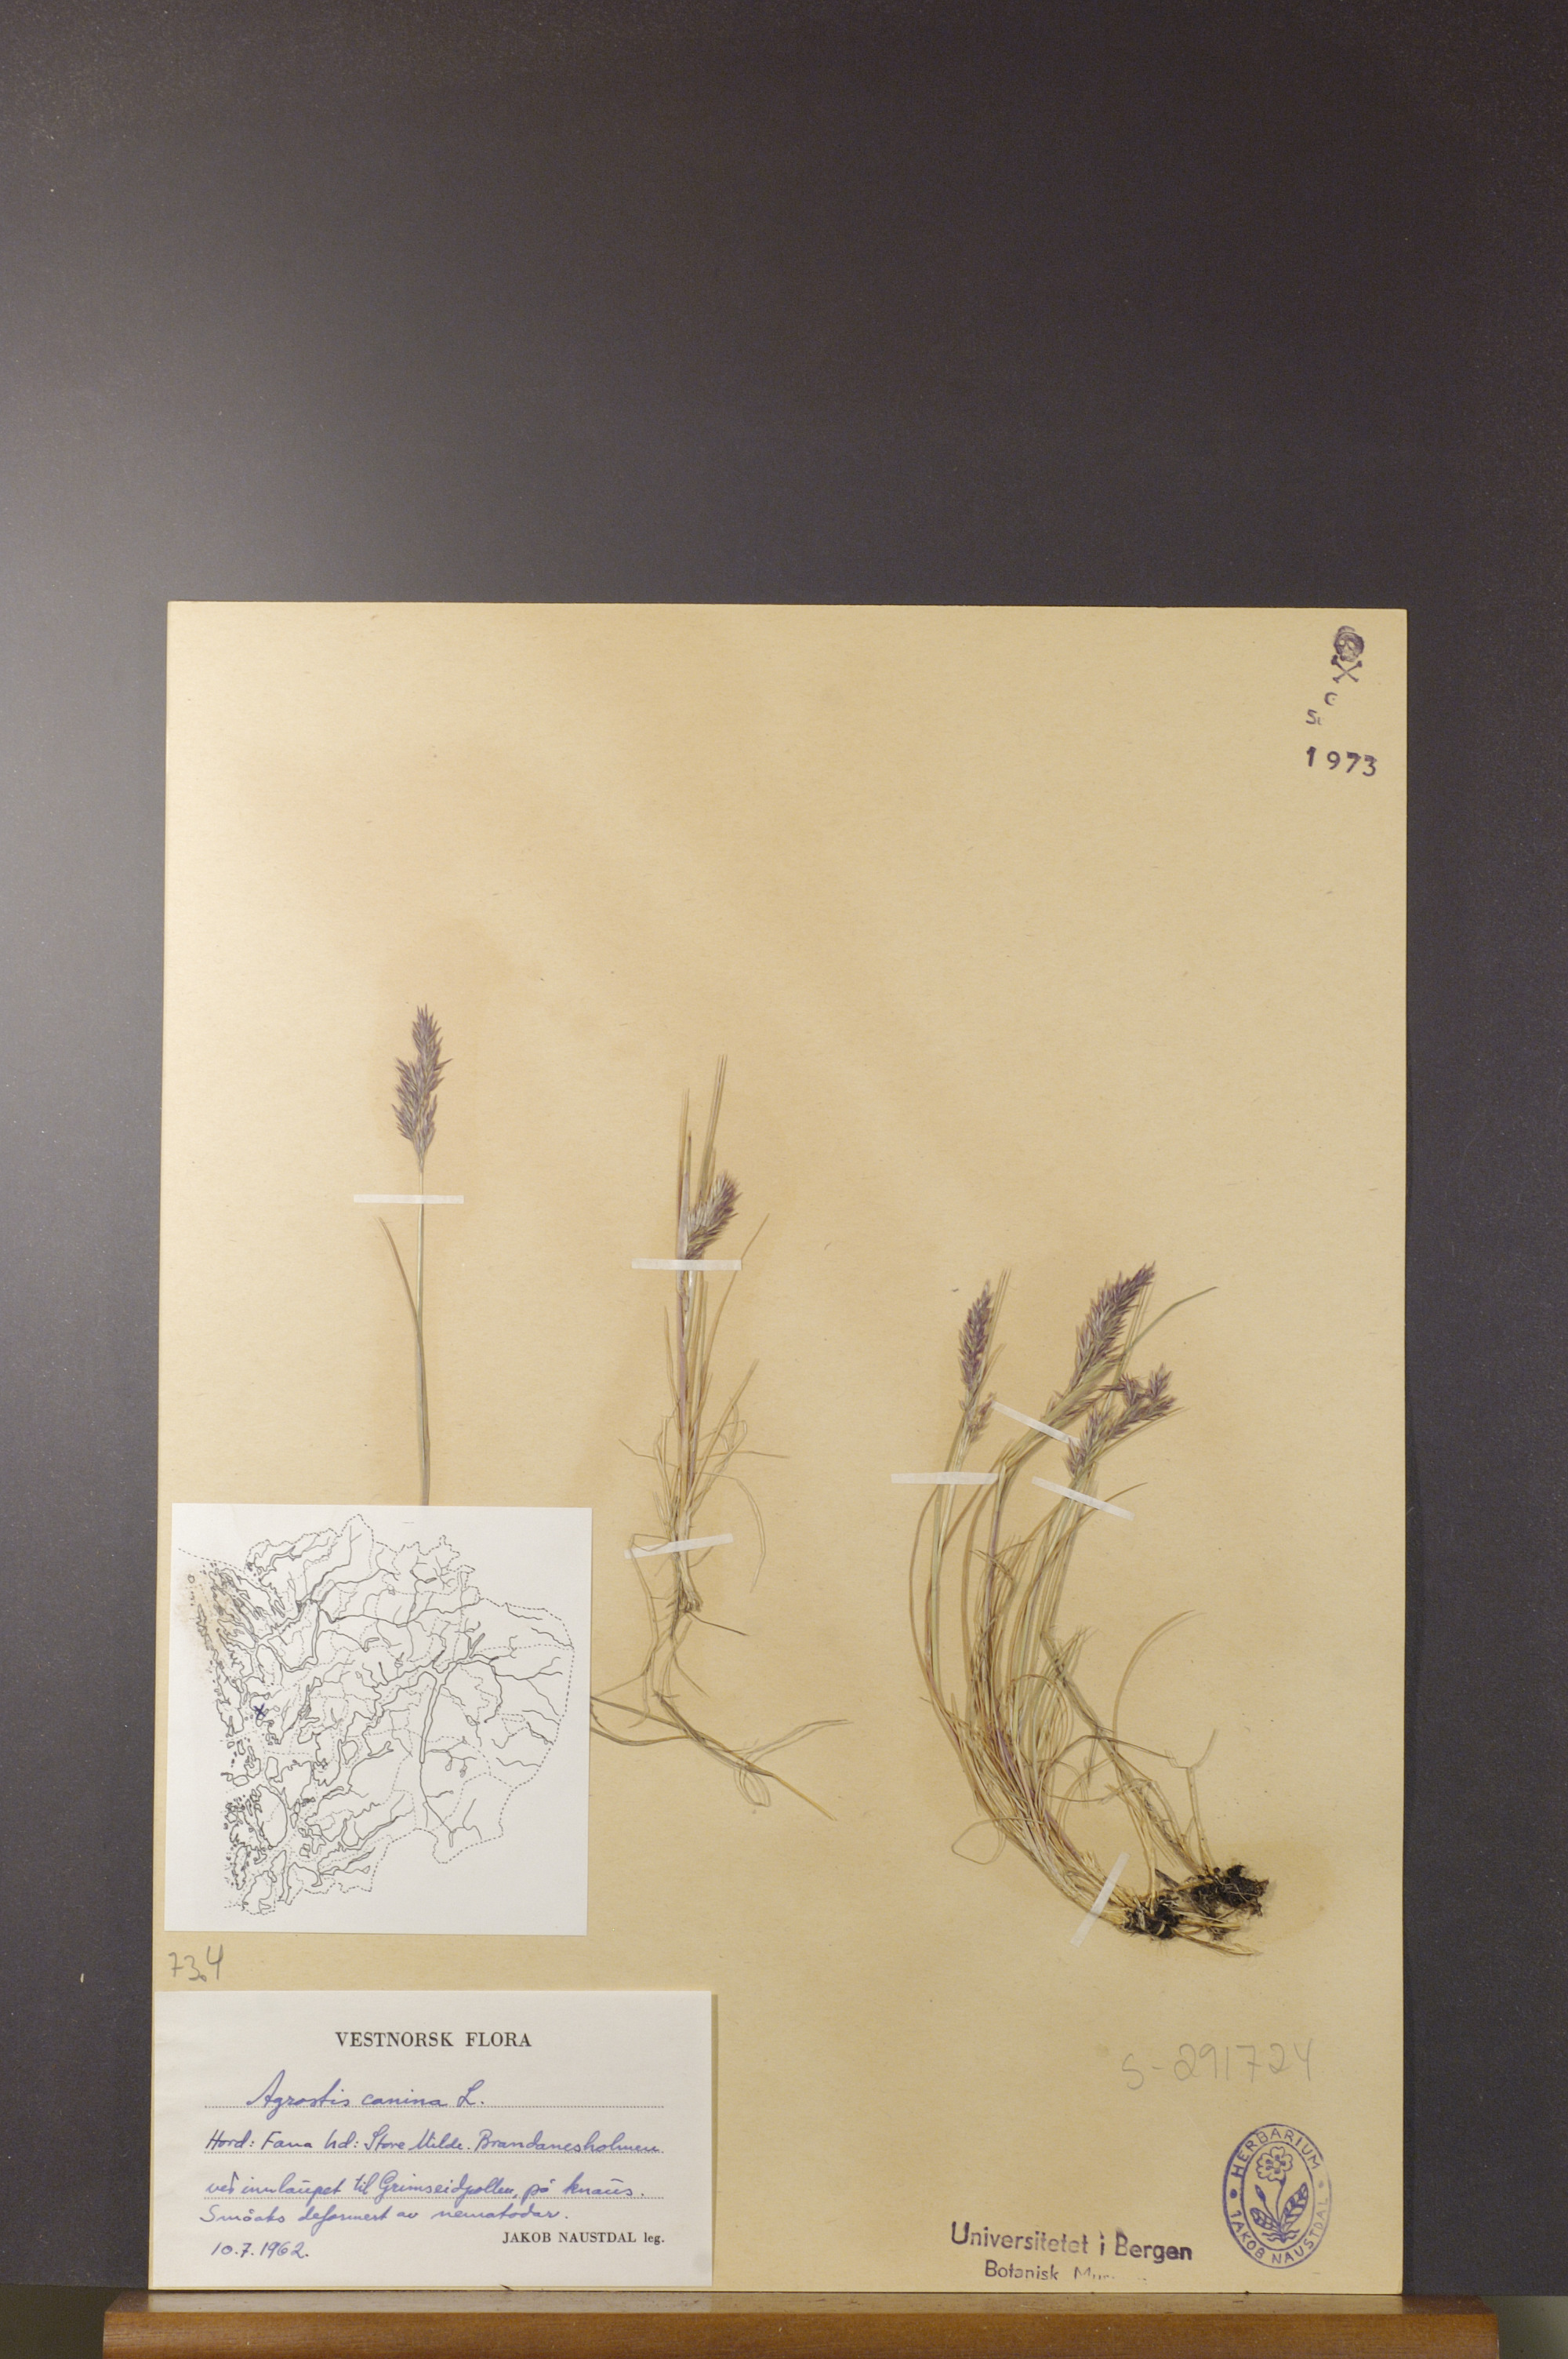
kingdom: Plantae
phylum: Tracheophyta
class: Liliopsida
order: Poales
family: Poaceae
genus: Agrostis
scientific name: Agrostis canina
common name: Velvet bent
